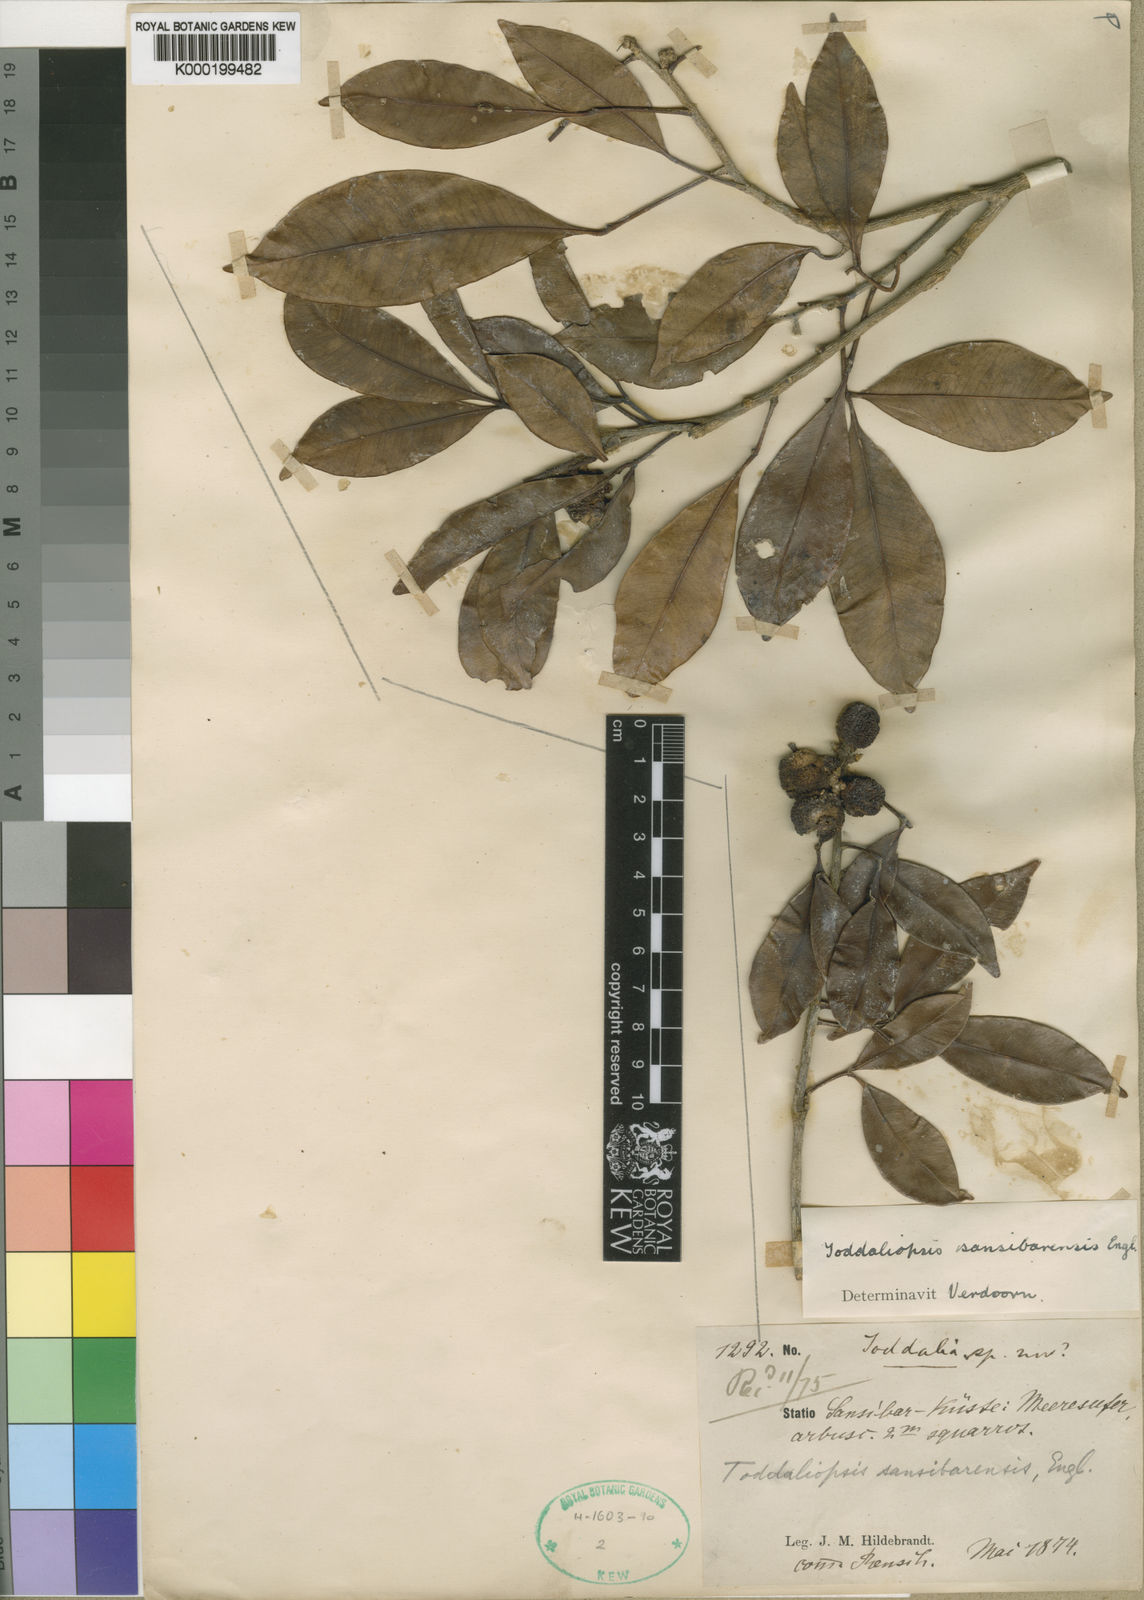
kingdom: Plantae
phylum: Tracheophyta
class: Magnoliopsida
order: Sapindales
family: Rutaceae
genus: Vepris
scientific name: Vepris sansibarensis
